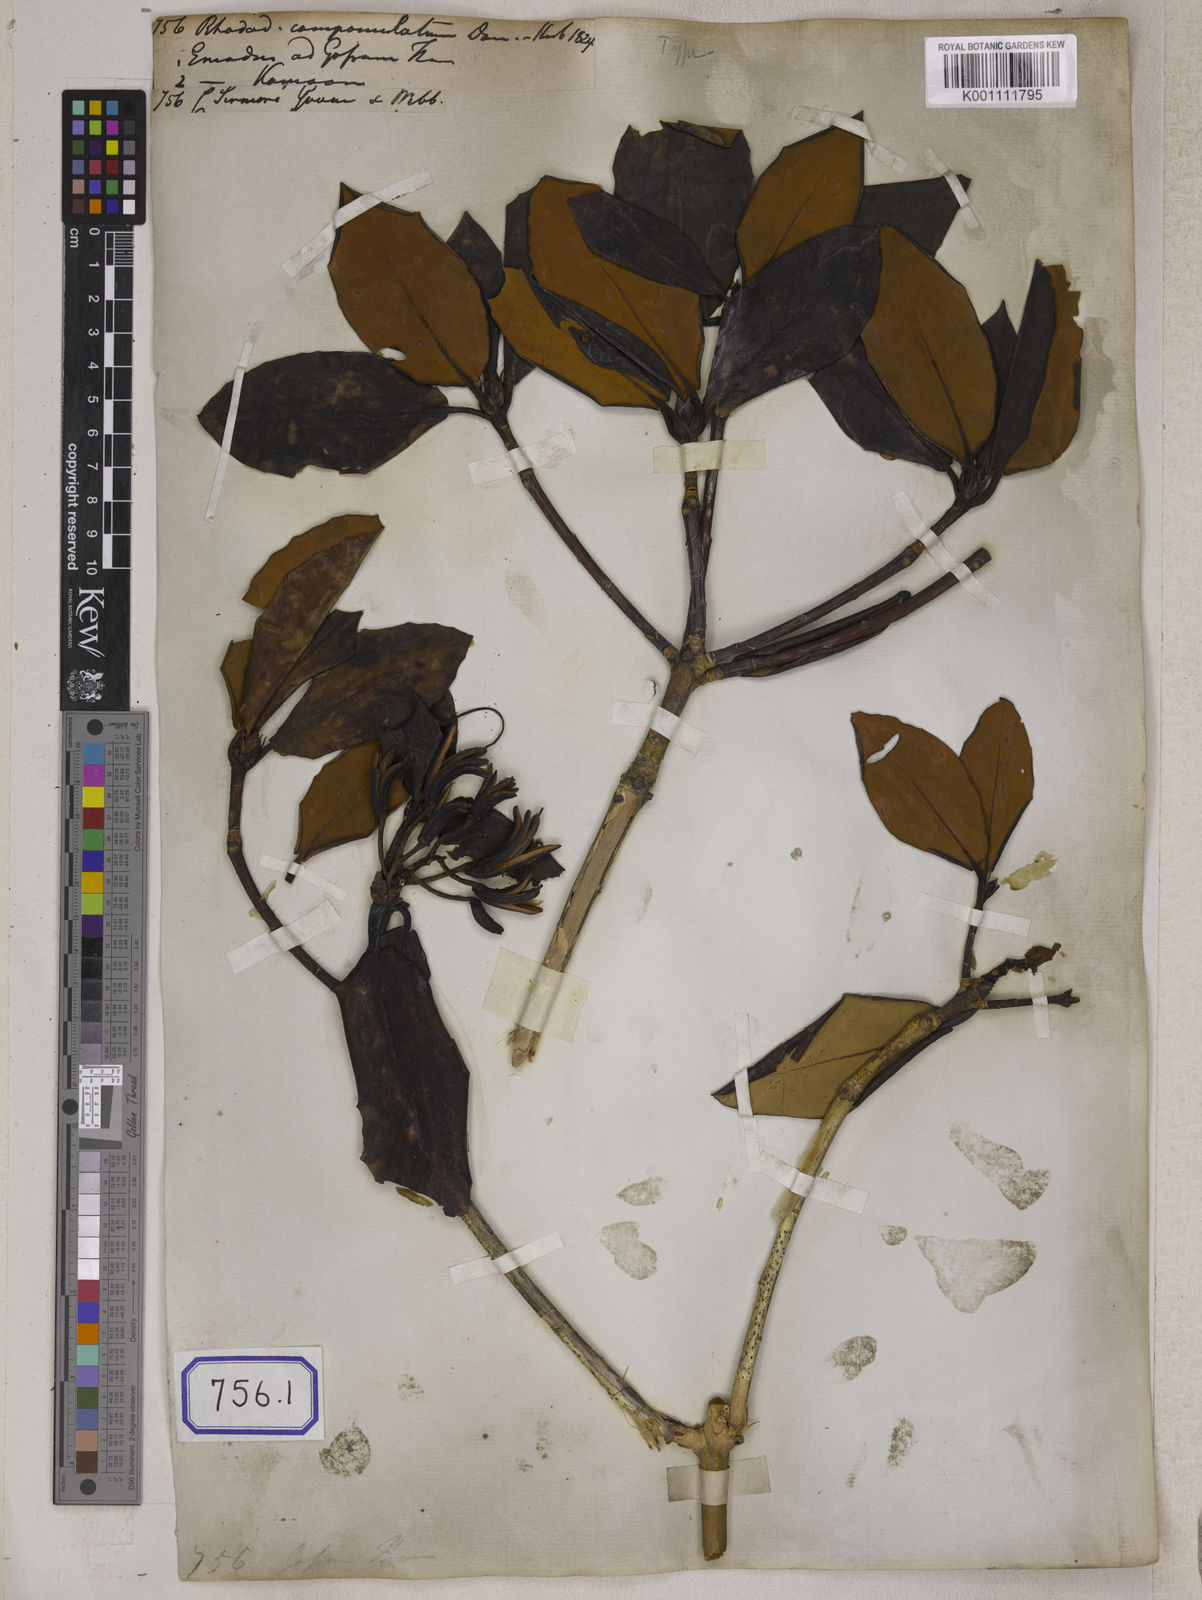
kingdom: Plantae
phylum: Tracheophyta
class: Magnoliopsida
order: Ericales
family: Ericaceae
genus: Rhododendron
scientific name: Rhododendron campanulatum
